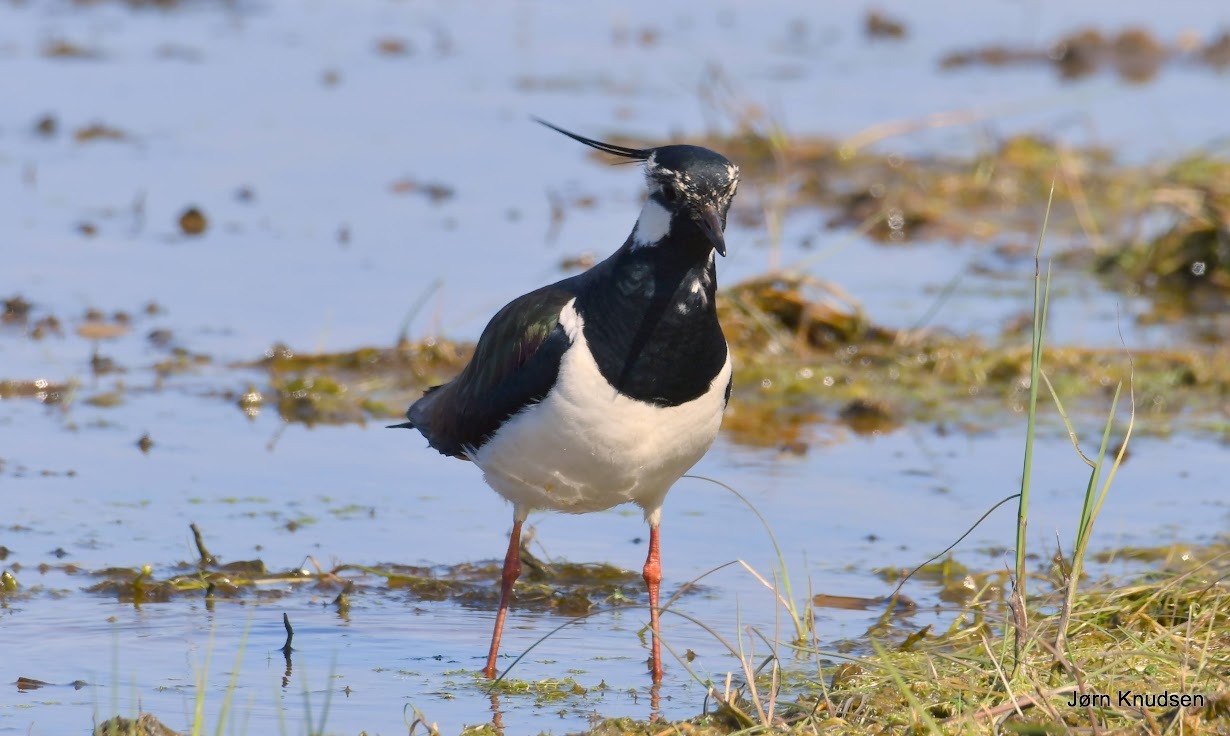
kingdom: Animalia
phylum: Chordata
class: Aves
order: Charadriiformes
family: Charadriidae
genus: Vanellus
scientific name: Vanellus vanellus
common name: Vibe
